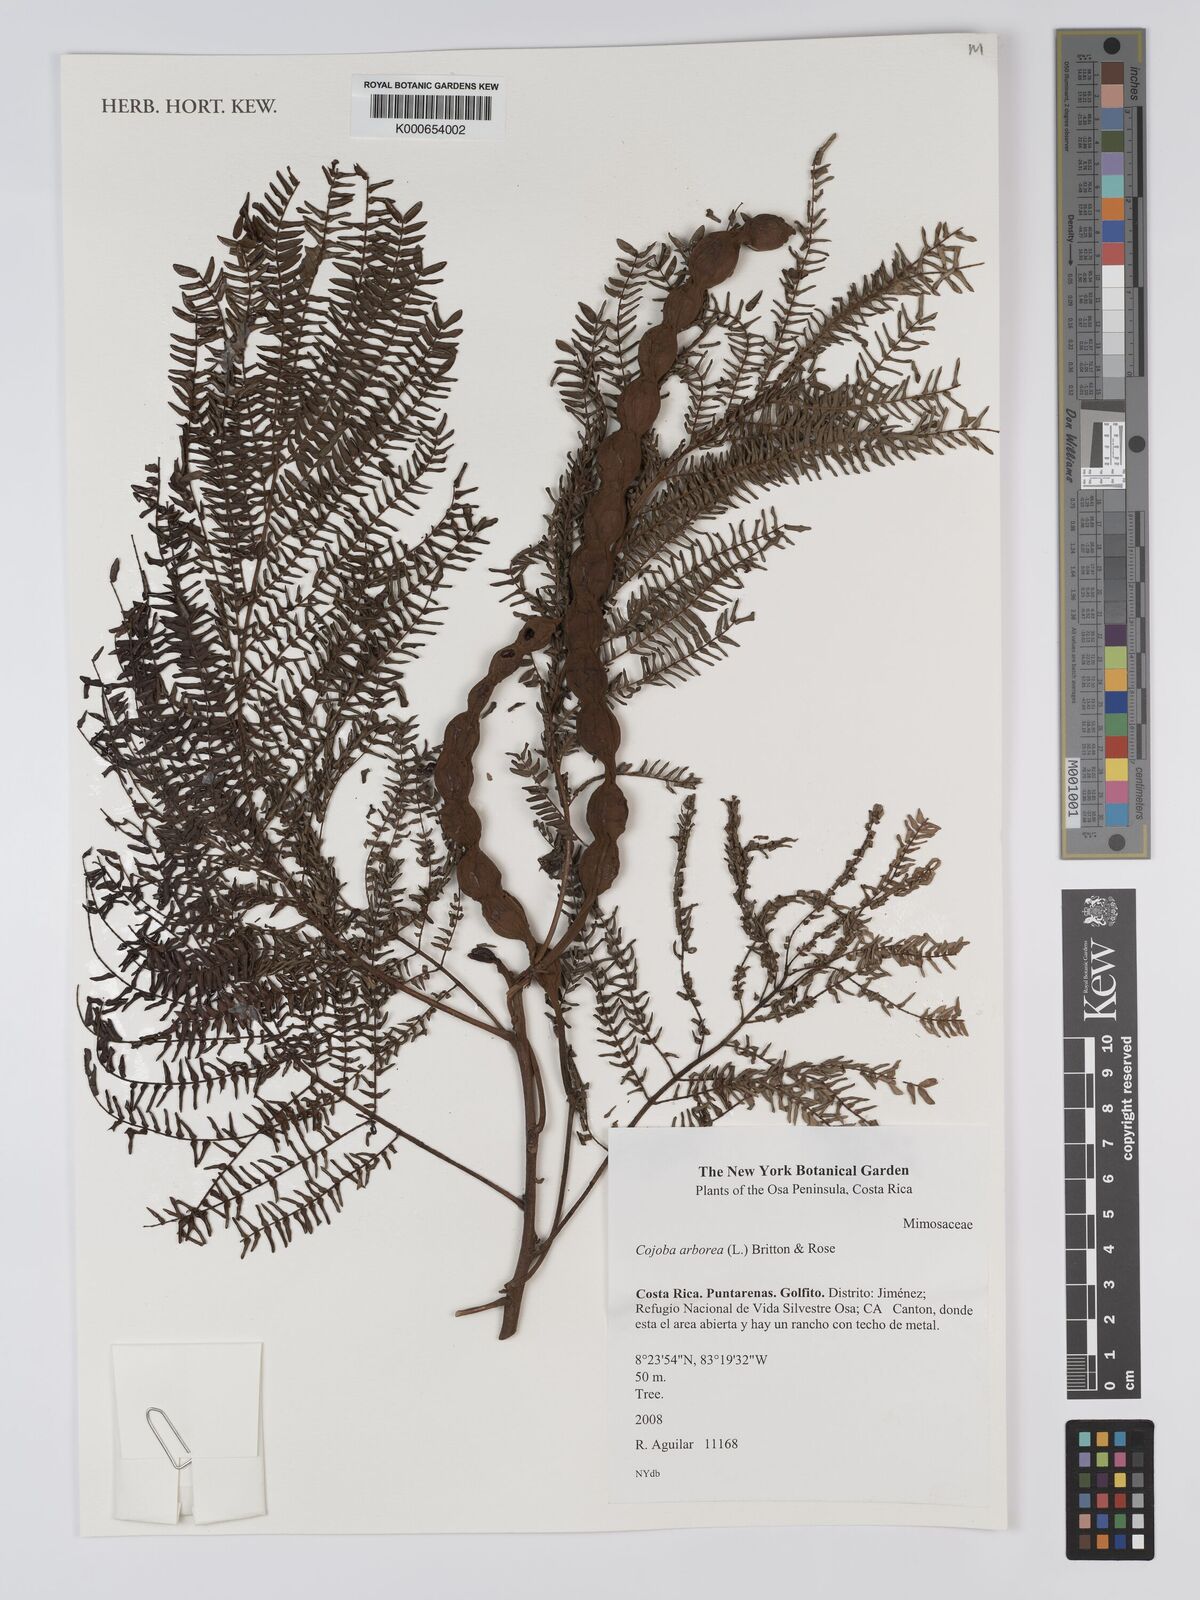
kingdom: Plantae
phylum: Tracheophyta
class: Magnoliopsida
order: Fabales
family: Fabaceae
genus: Cojoba
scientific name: Cojoba arborea
